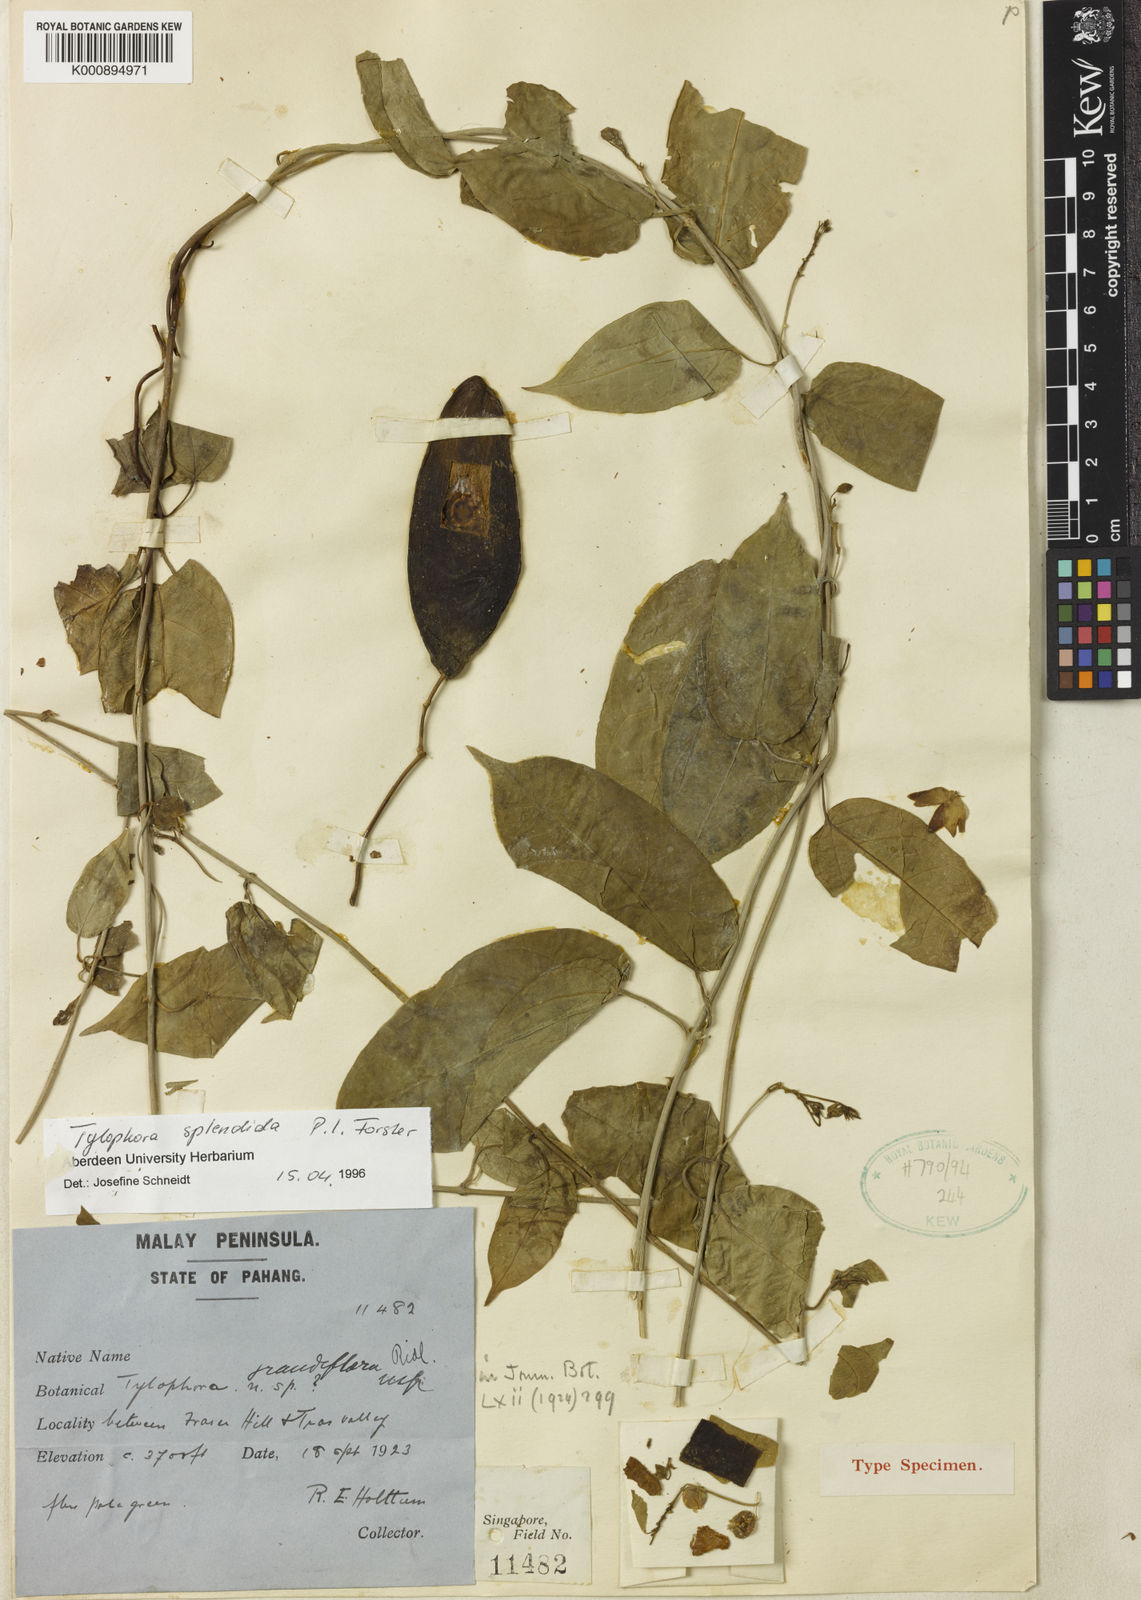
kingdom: Plantae
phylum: Tracheophyta
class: Magnoliopsida
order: Gentianales
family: Apocynaceae
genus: Vincetoxicum
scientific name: Vincetoxicum splendidum
